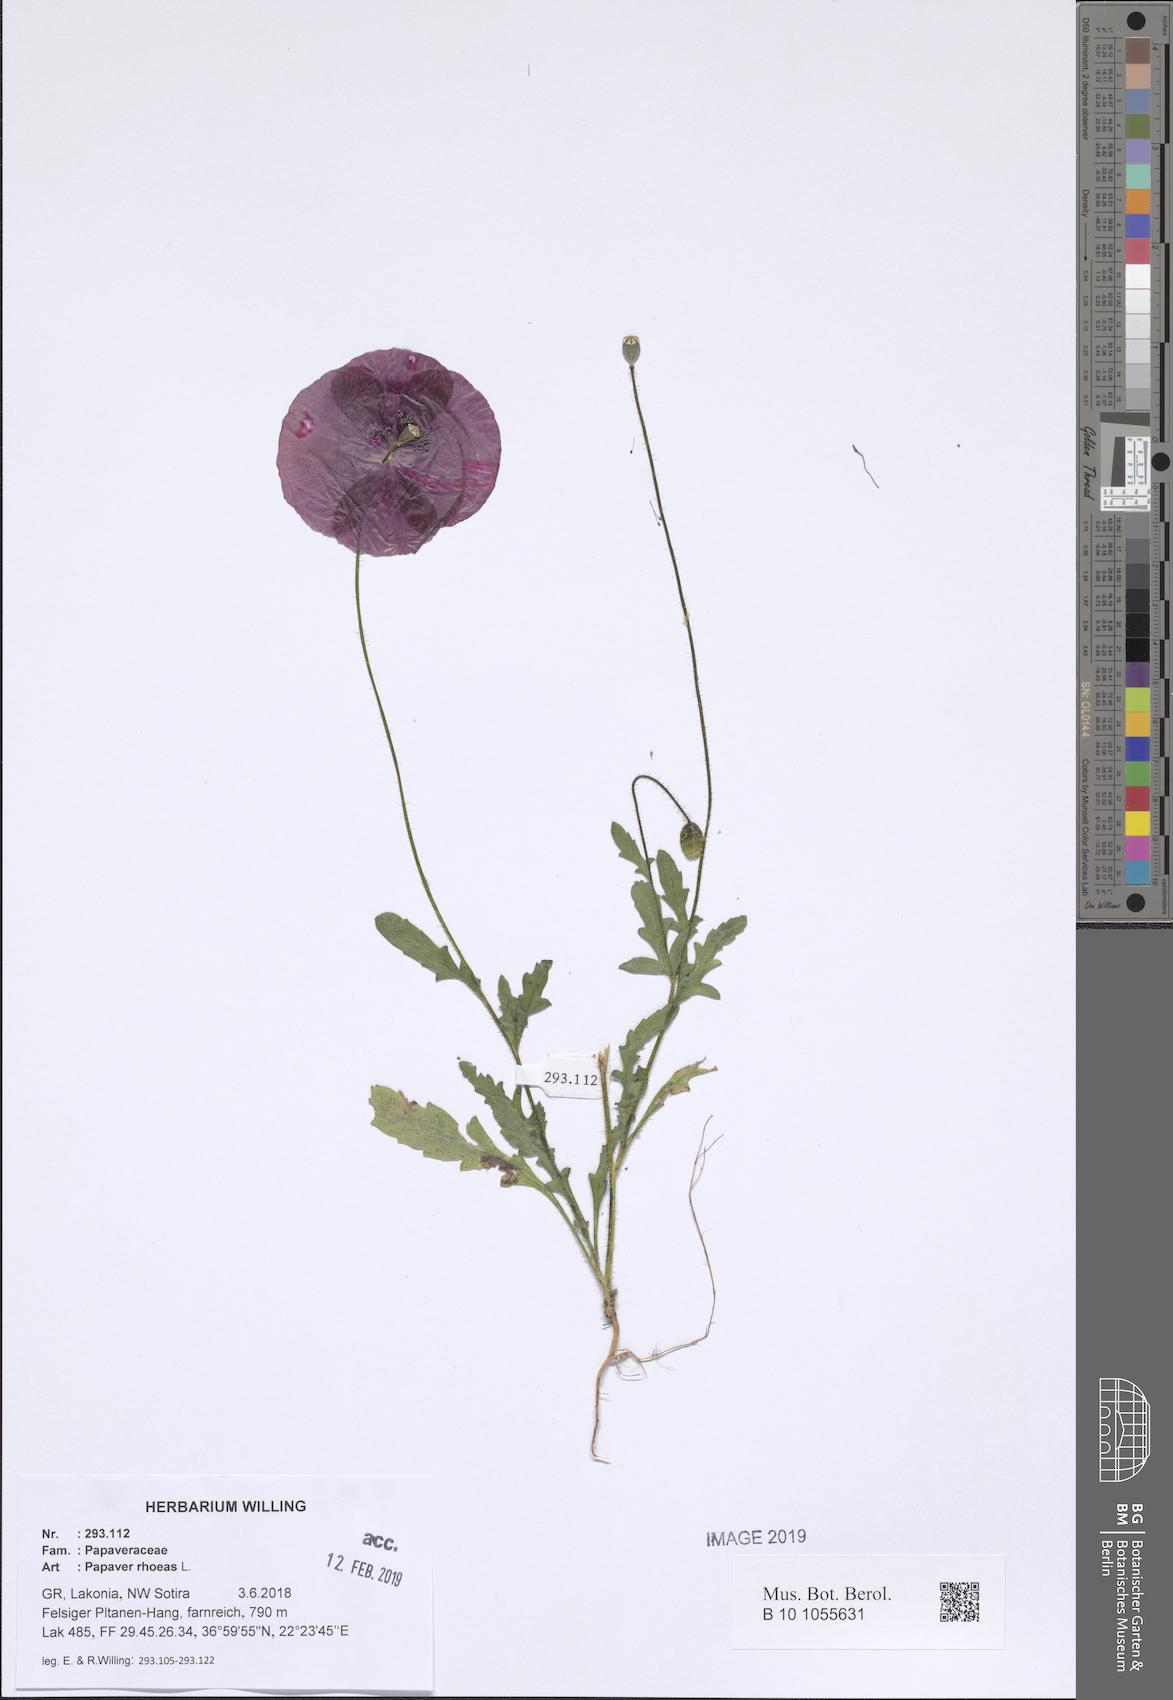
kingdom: Plantae
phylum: Tracheophyta
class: Magnoliopsida
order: Ranunculales
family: Papaveraceae
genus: Papaver
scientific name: Papaver rhoeas
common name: Corn poppy
